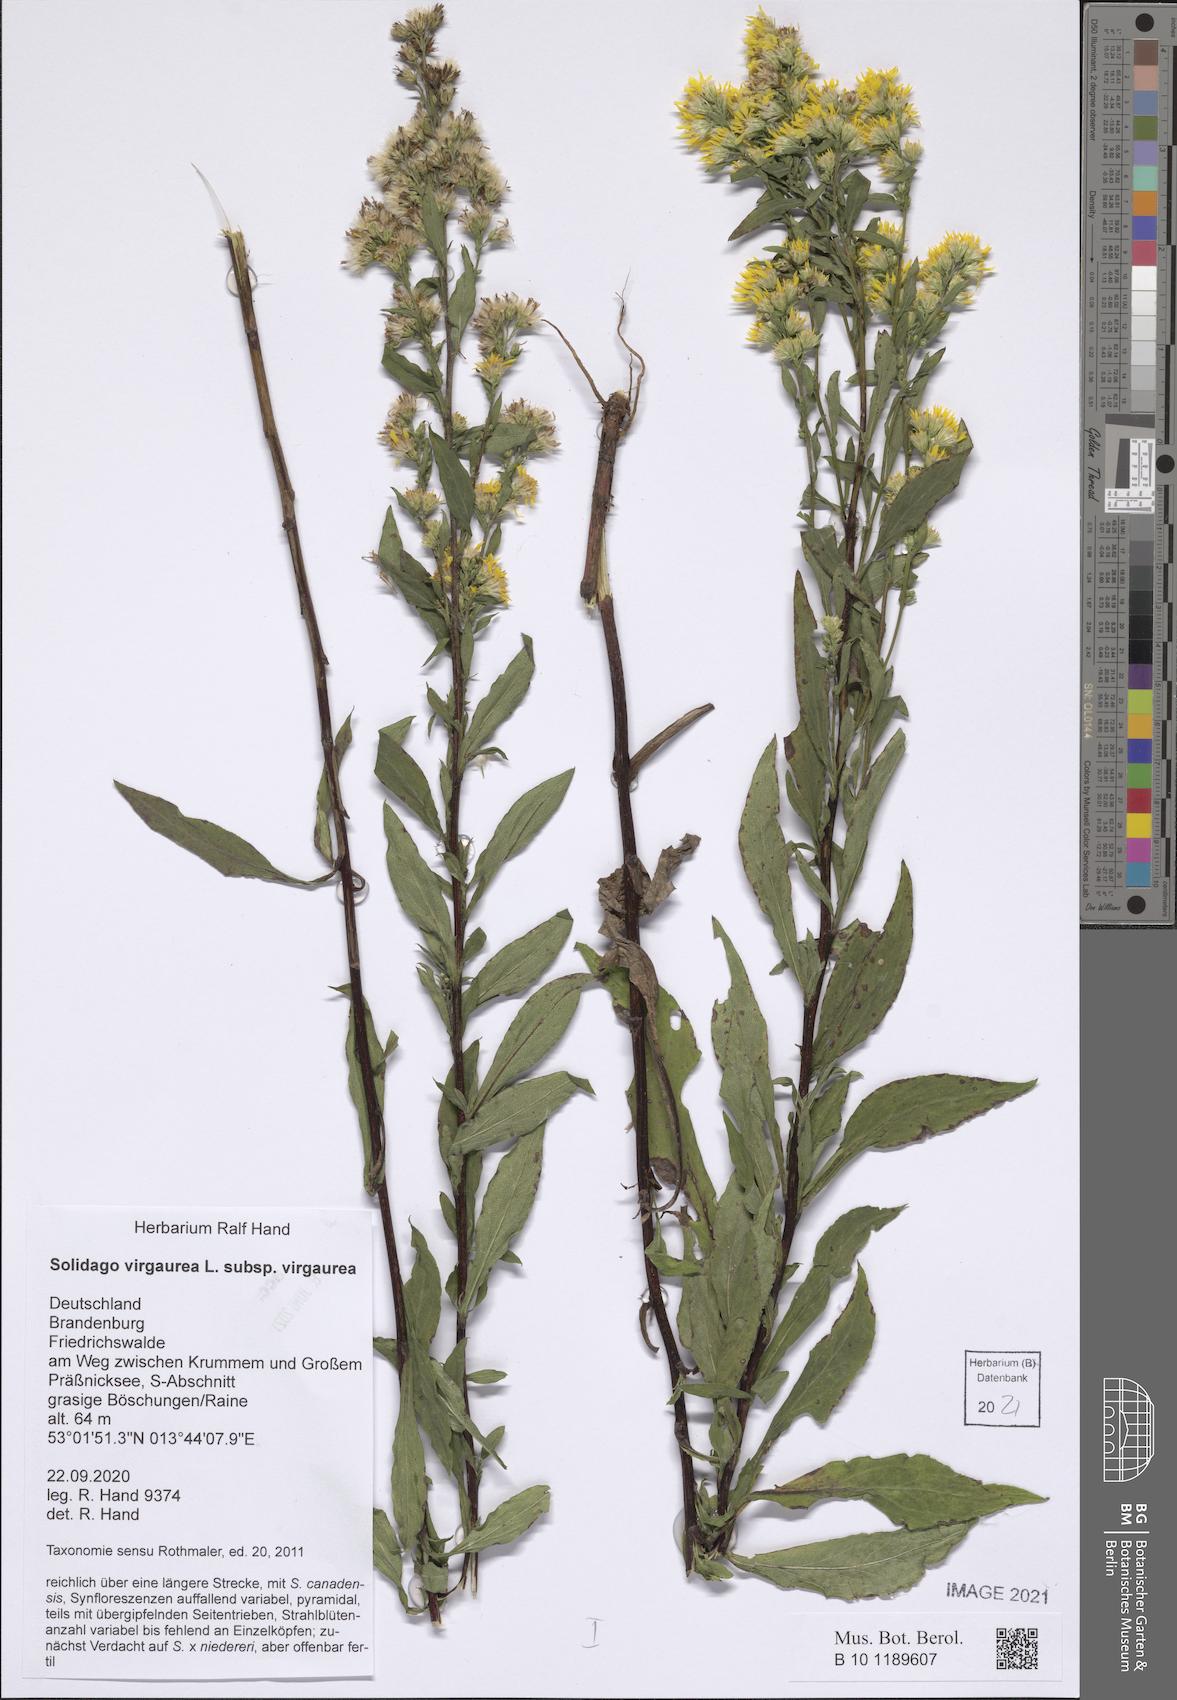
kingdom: Plantae
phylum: Tracheophyta
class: Magnoliopsida
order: Asterales
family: Asteraceae
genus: Solidago
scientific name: Solidago virgaurea
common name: Goldenrod
